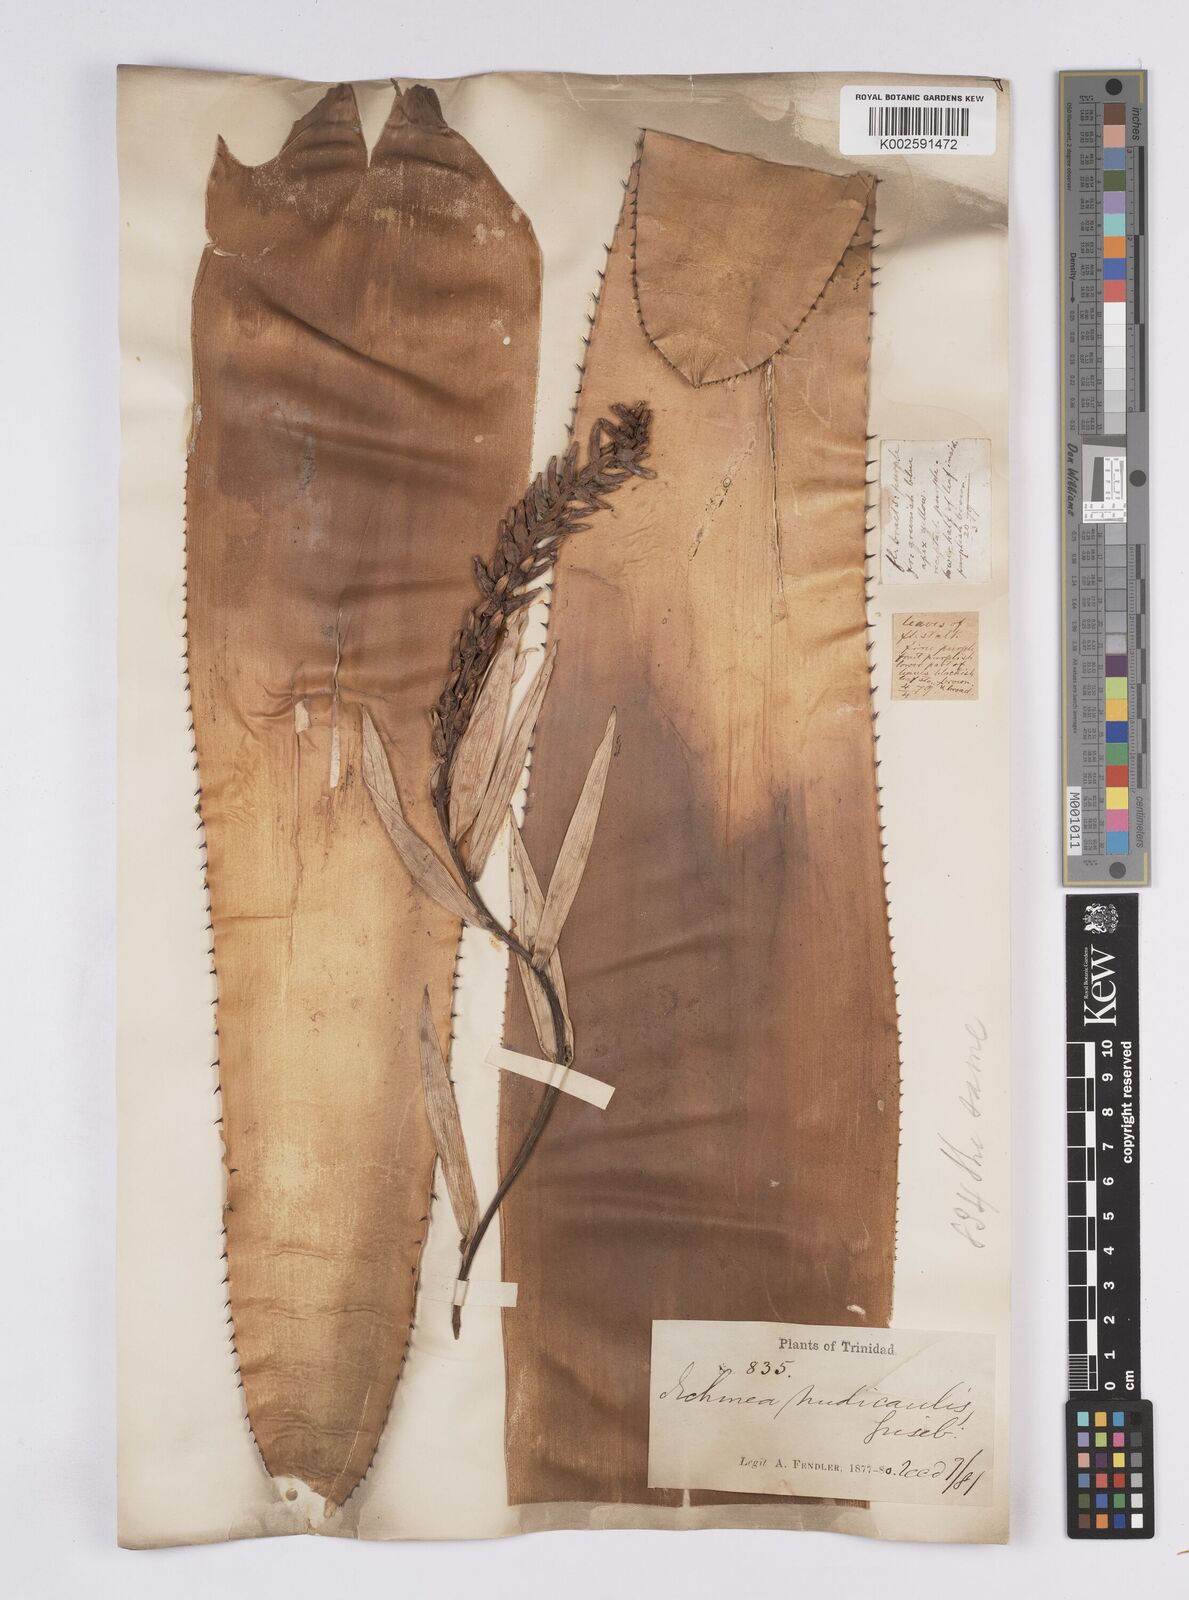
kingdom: Plantae
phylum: Tracheophyta
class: Liliopsida
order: Poales
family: Bromeliaceae
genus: Aechmea
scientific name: Aechmea nudicaulis
